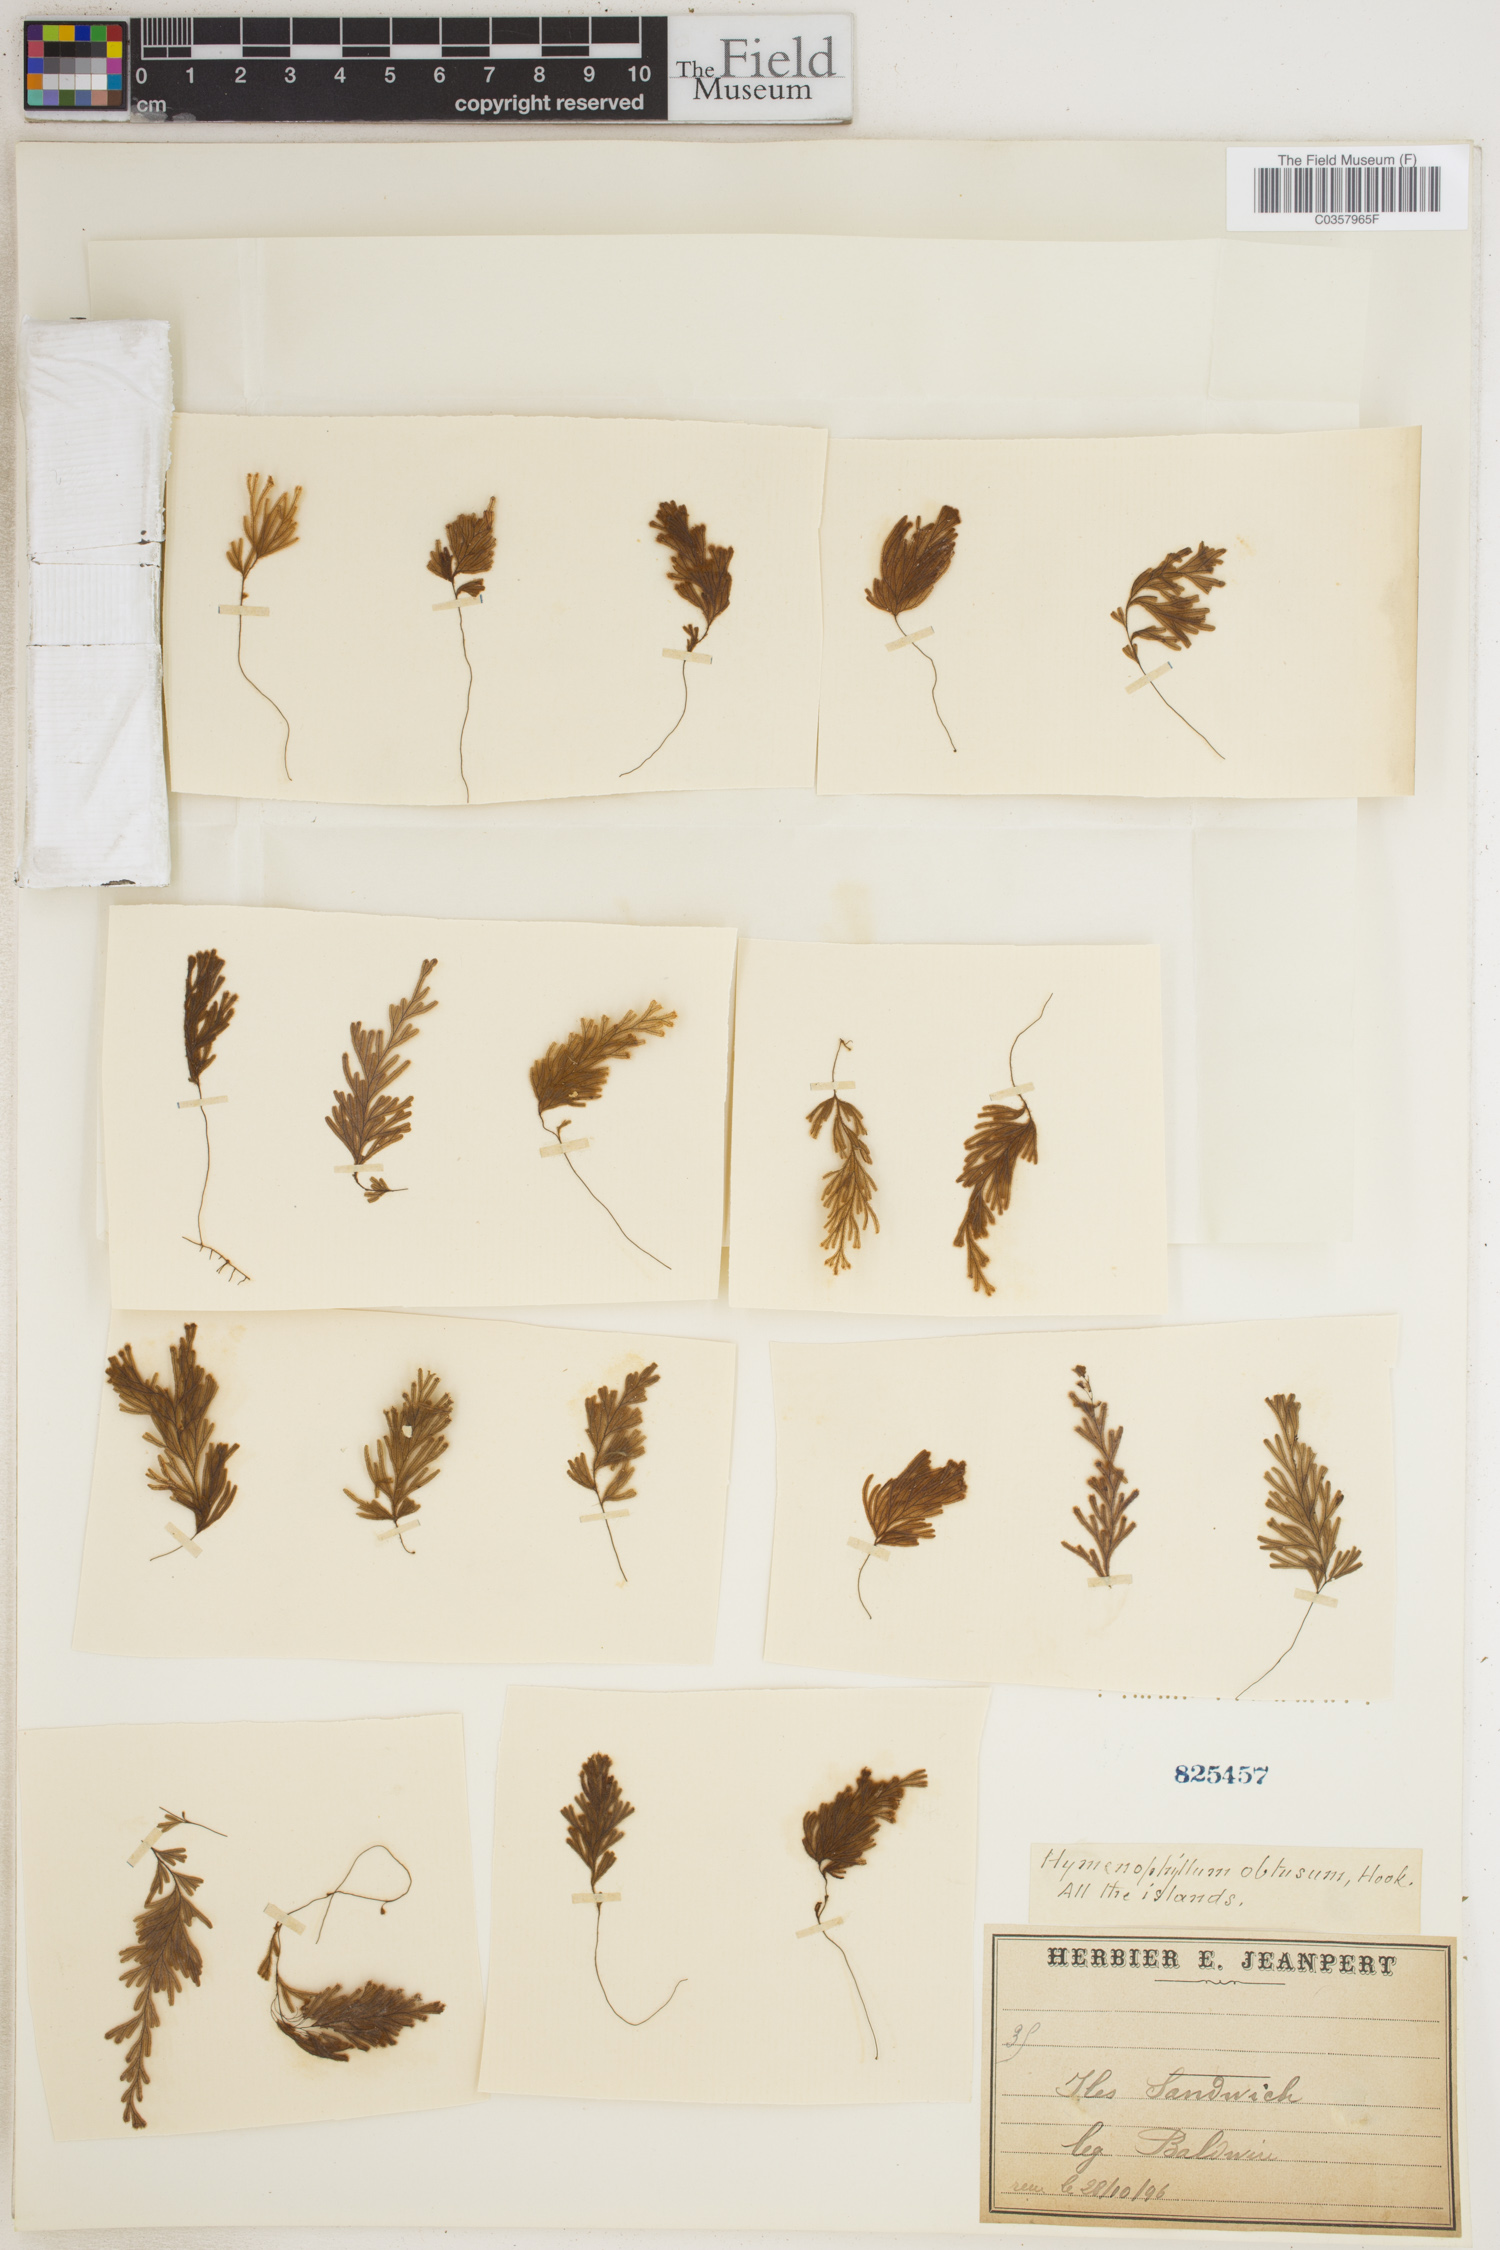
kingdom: Plantae
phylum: Tracheophyta
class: Polypodiopsida
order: Hymenophyllales
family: Hymenophyllaceae
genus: Hymenophyllum
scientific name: Hymenophyllum obtusum
